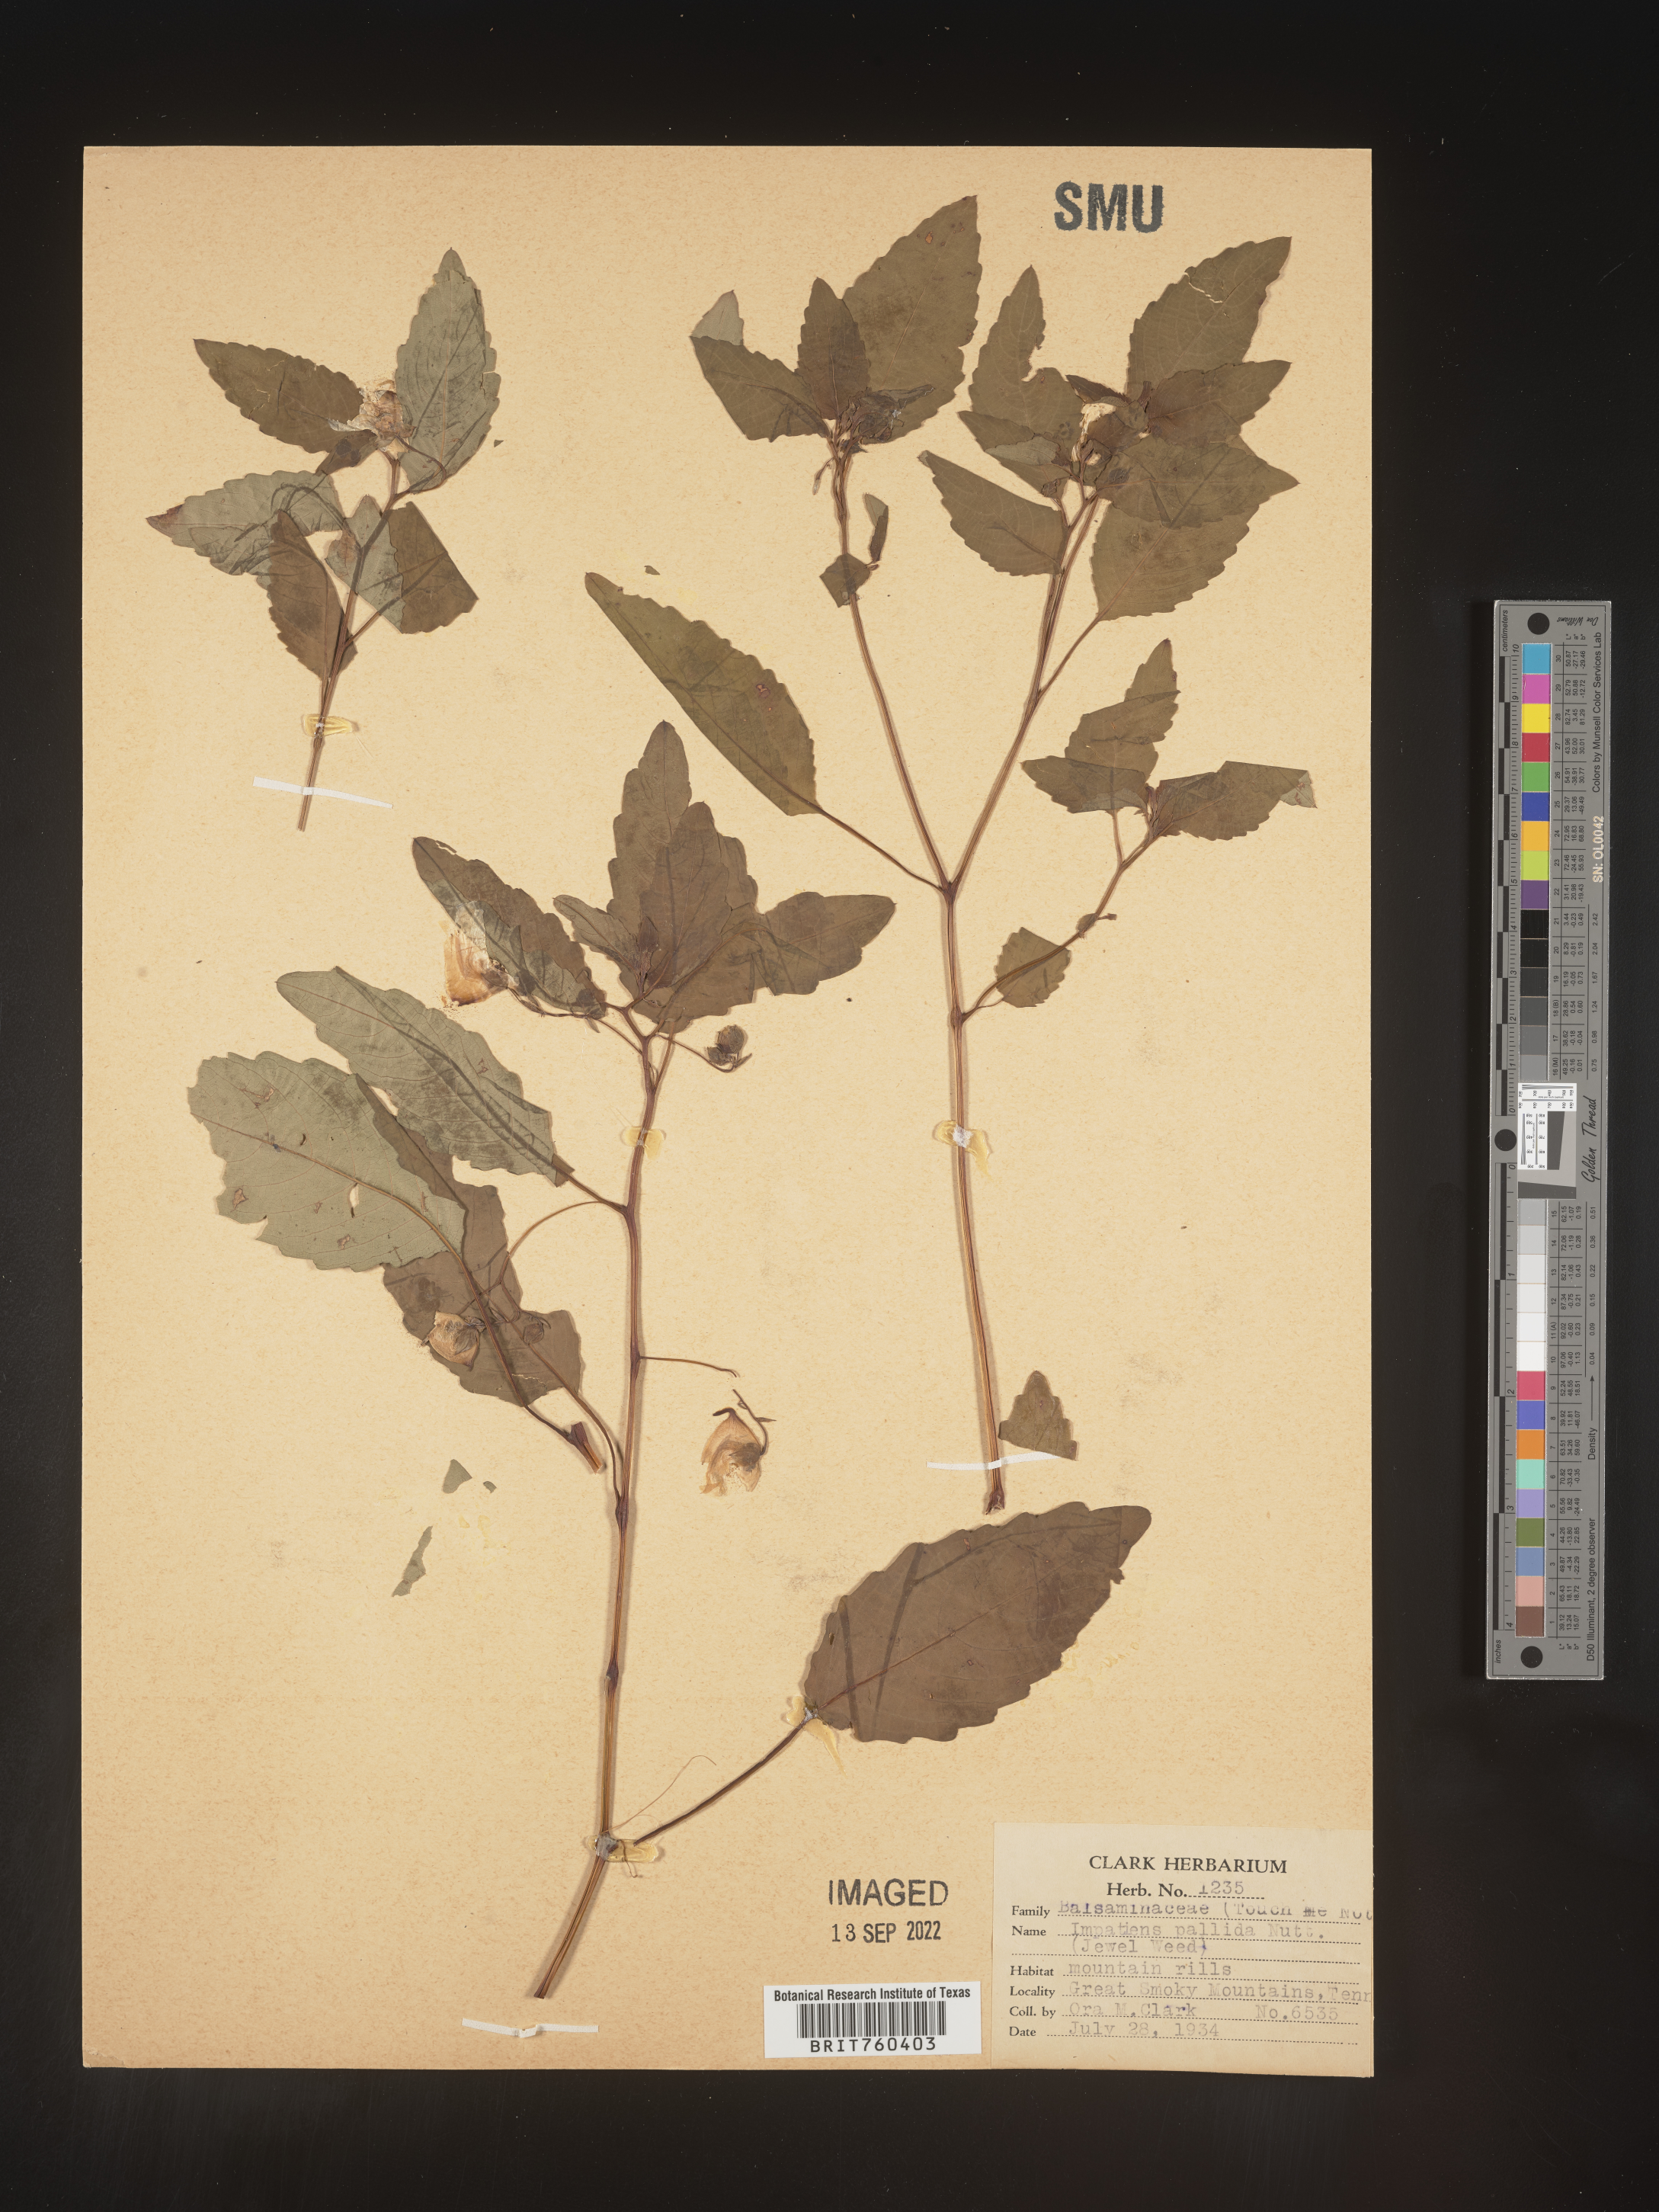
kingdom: Plantae
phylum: Tracheophyta
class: Magnoliopsida
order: Ericales
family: Balsaminaceae
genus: Impatiens
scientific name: Impatiens pallida
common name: Pale snapweed
